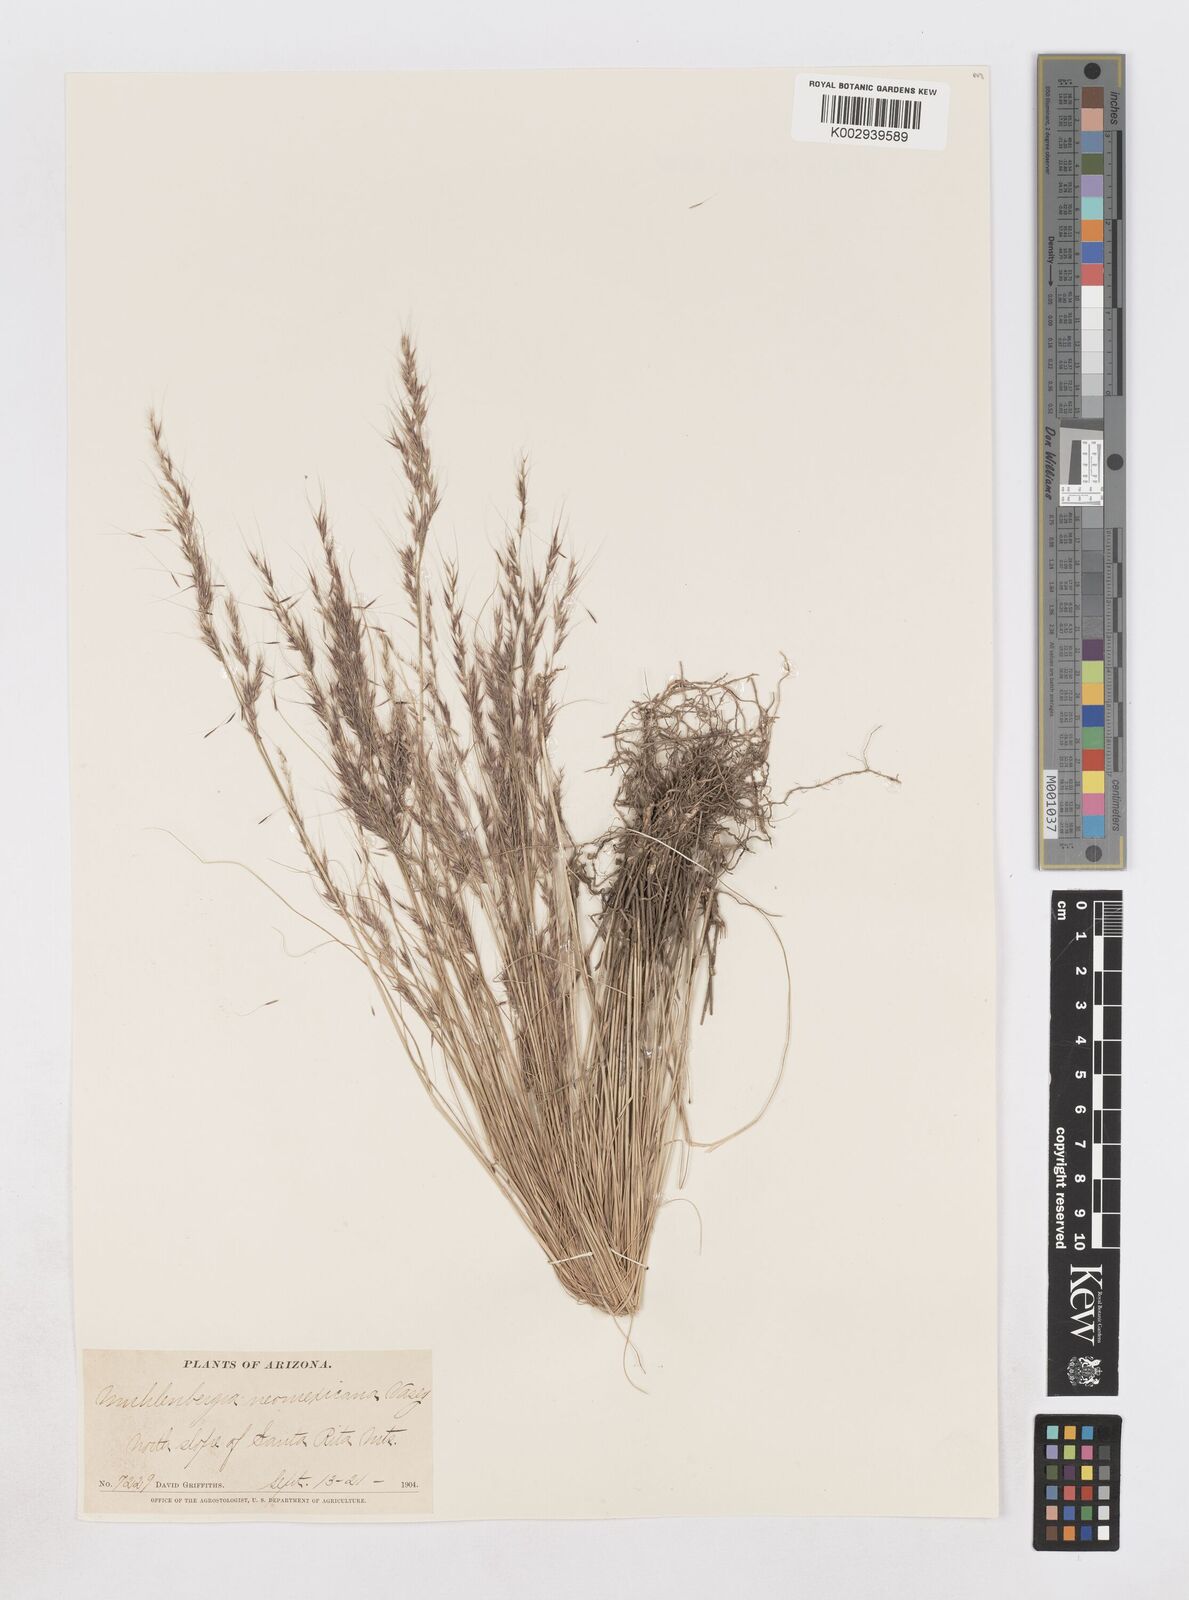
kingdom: Plantae
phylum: Tracheophyta
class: Liliopsida
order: Poales
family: Poaceae
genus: Muhlenbergia
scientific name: Muhlenbergia pauciflora
